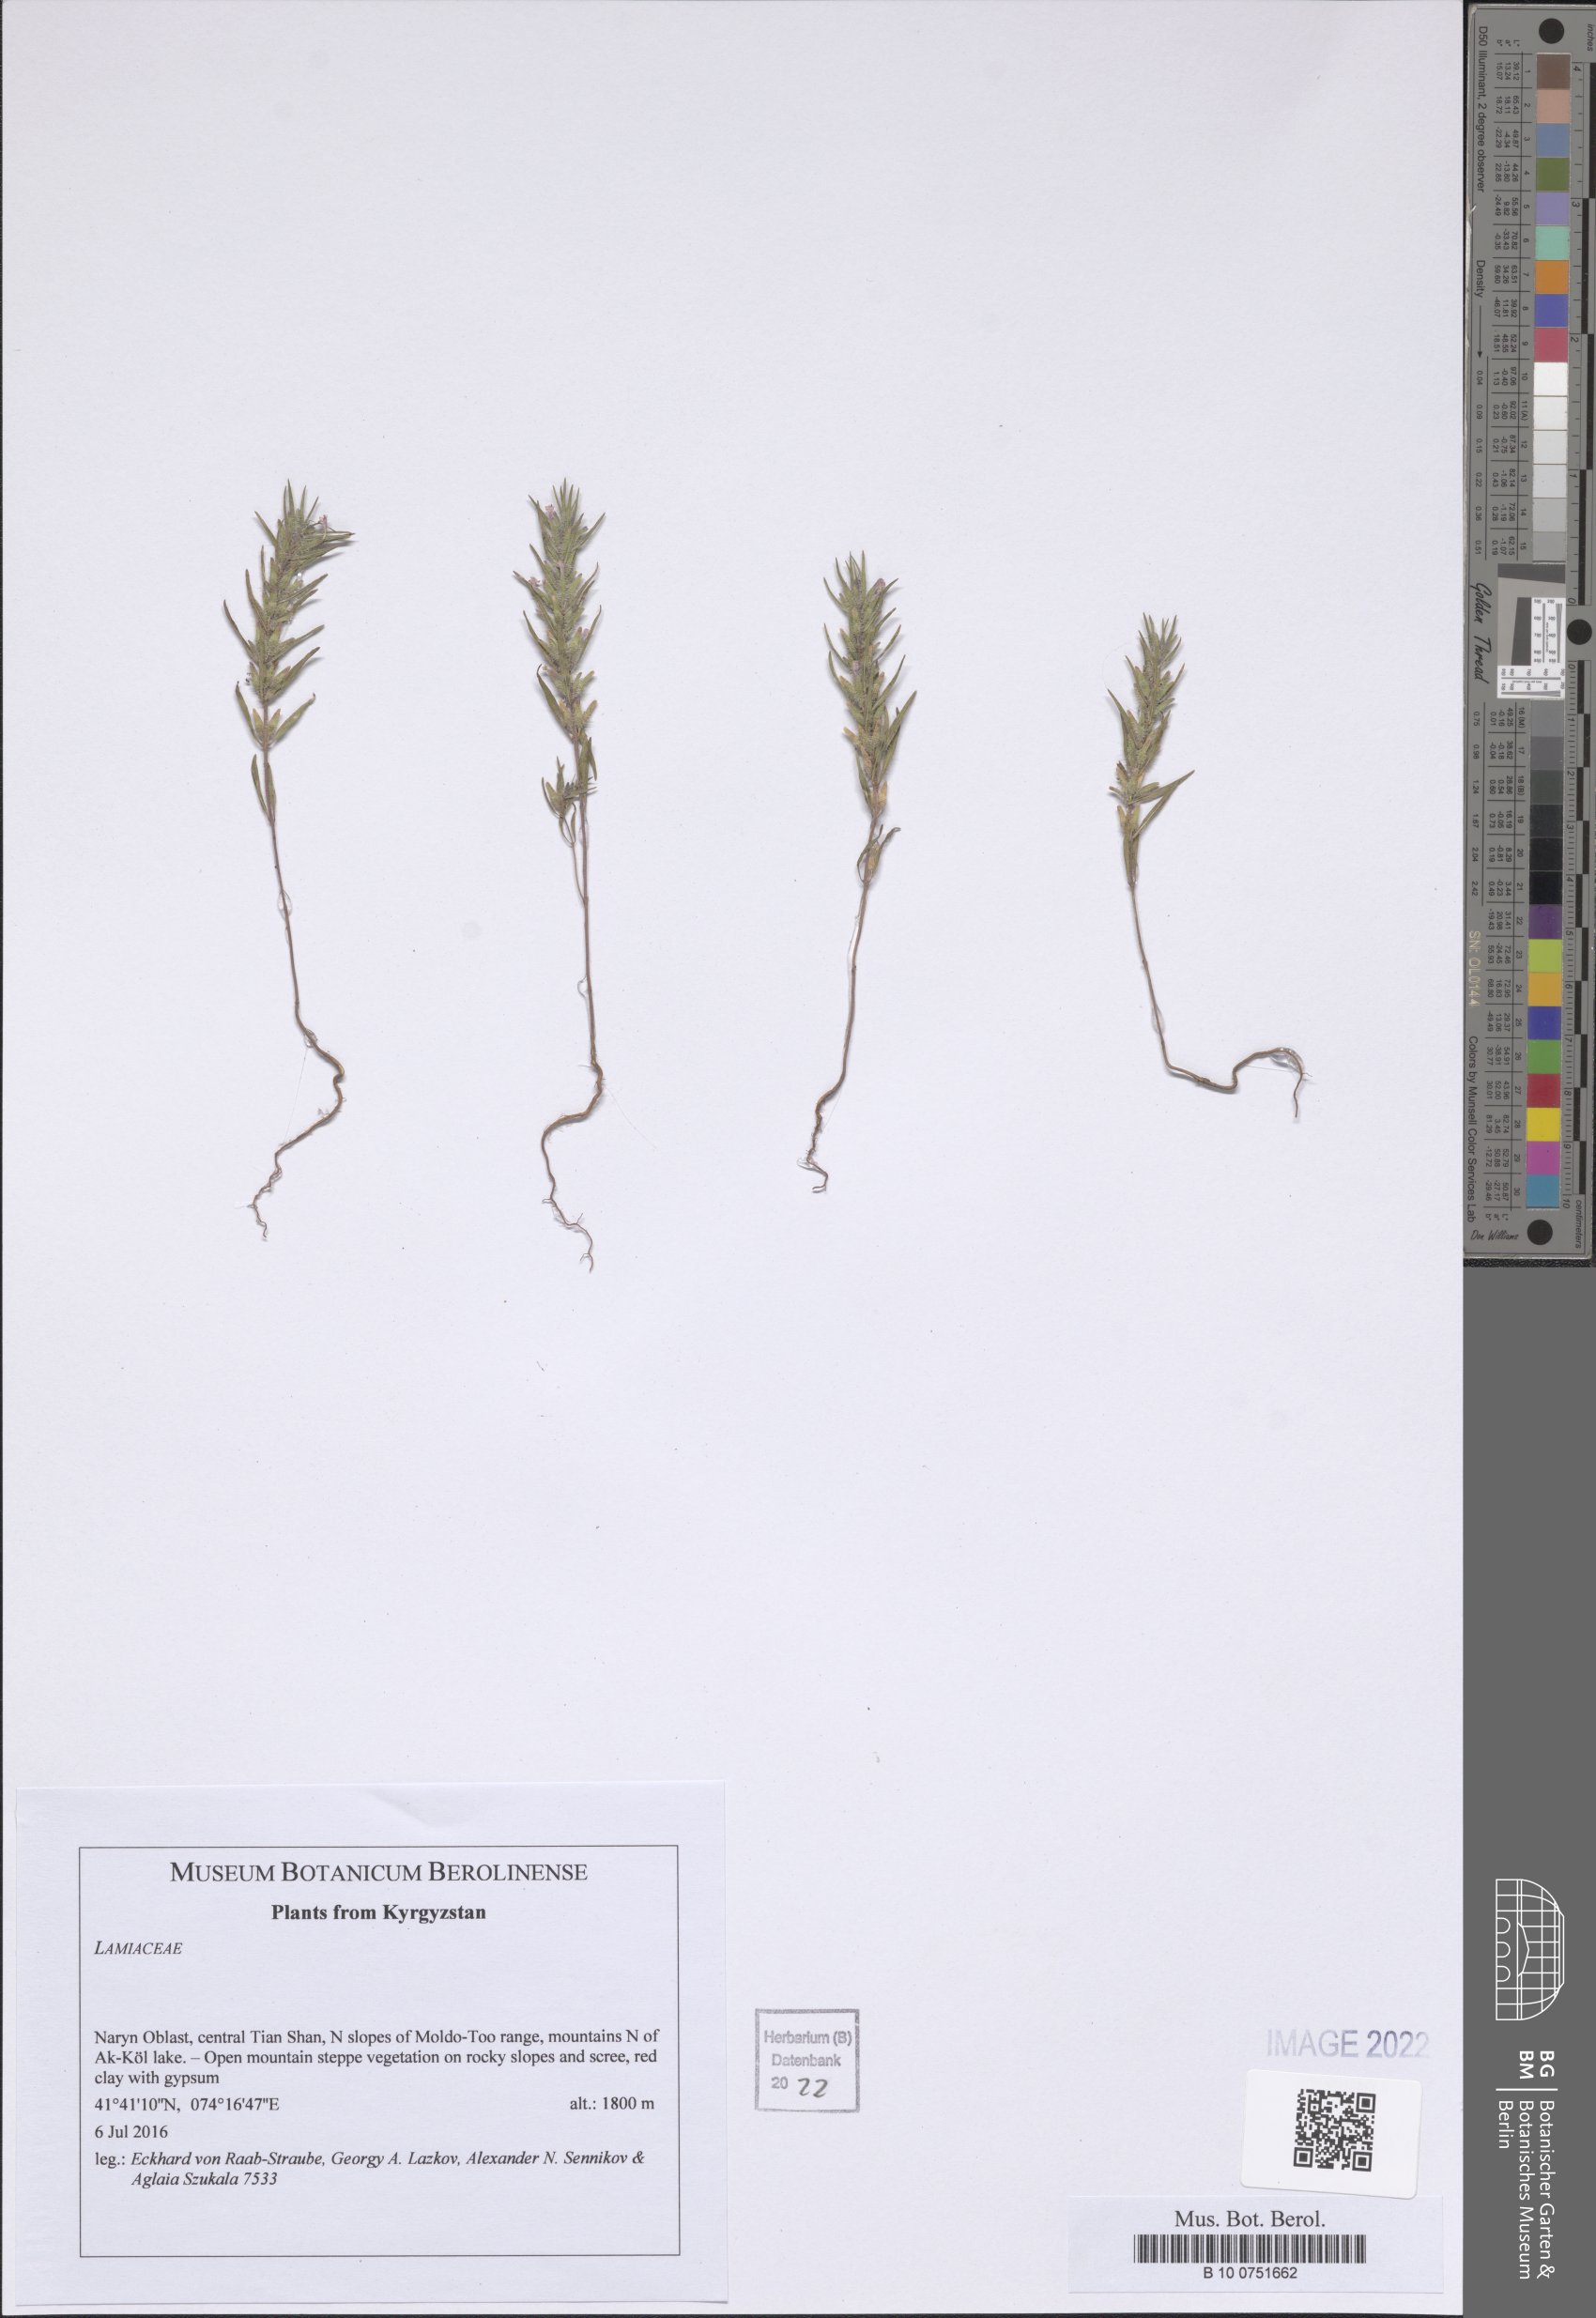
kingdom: Plantae
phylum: Tracheophyta
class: Magnoliopsida
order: Lamiales
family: Lamiaceae
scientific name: Lamiaceae
